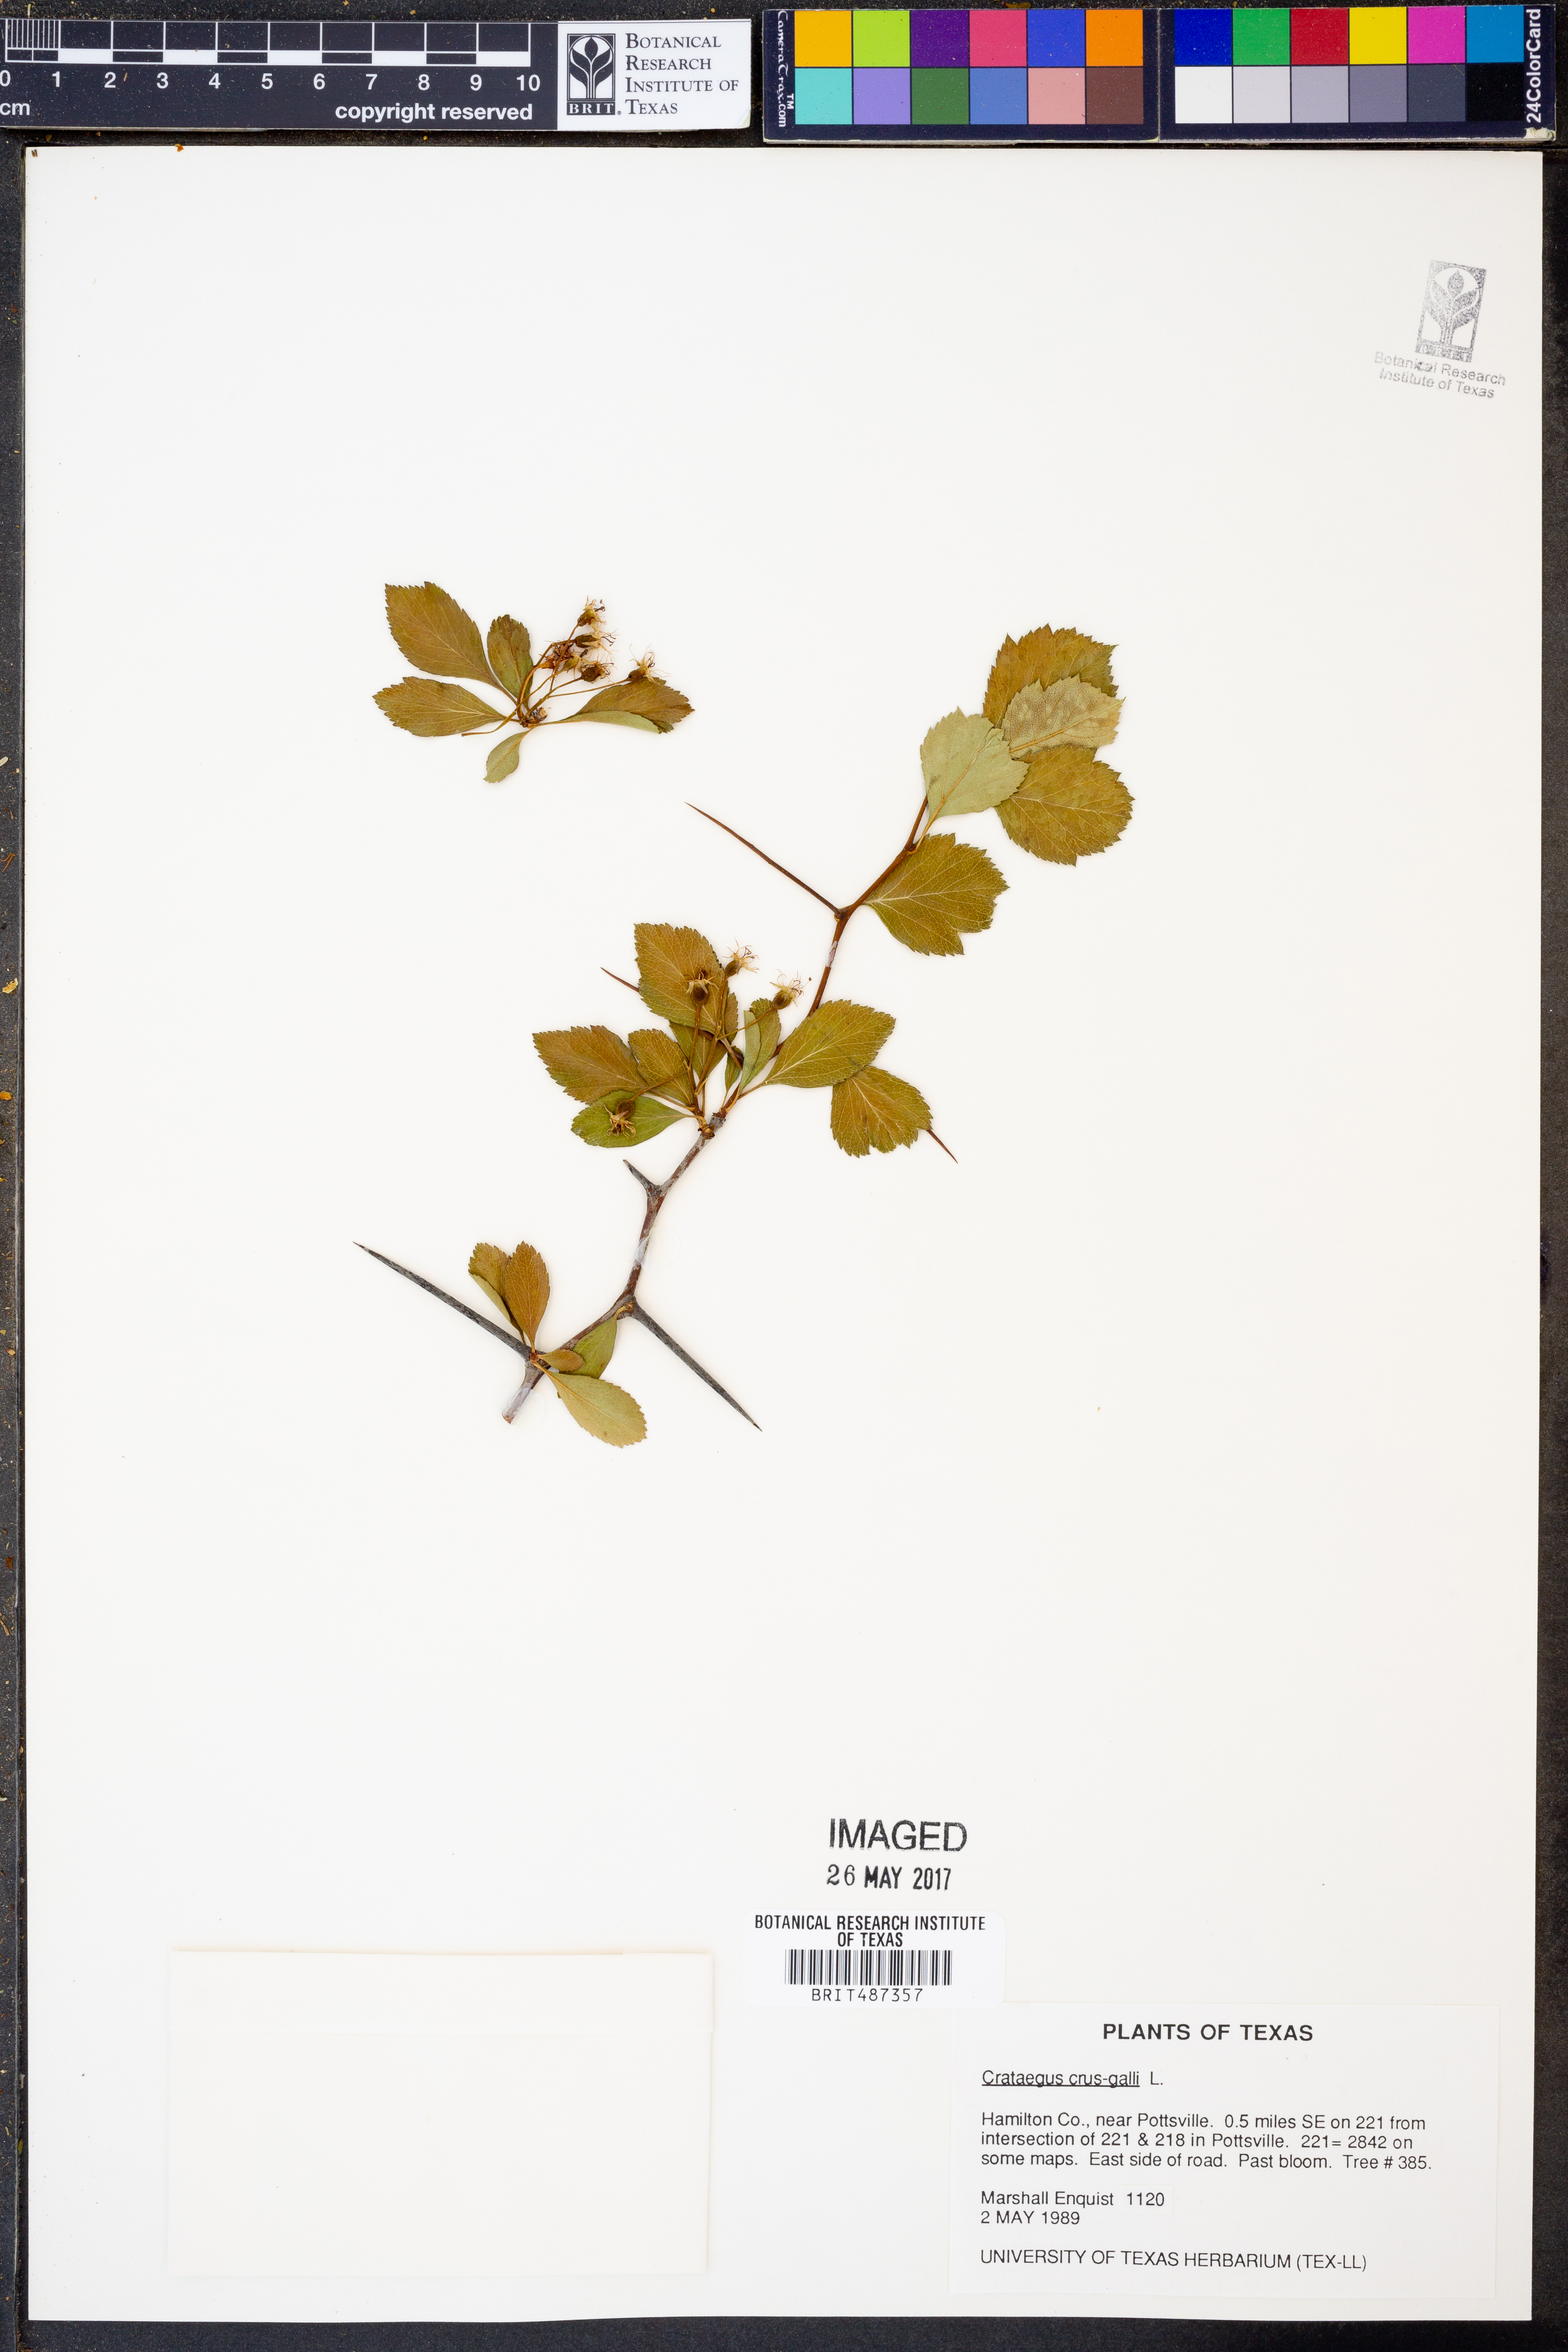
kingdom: Plantae
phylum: Tracheophyta
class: Magnoliopsida
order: Rosales
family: Rosaceae
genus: Crataegus
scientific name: Crataegus crus-galli
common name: Cockspurthorn
